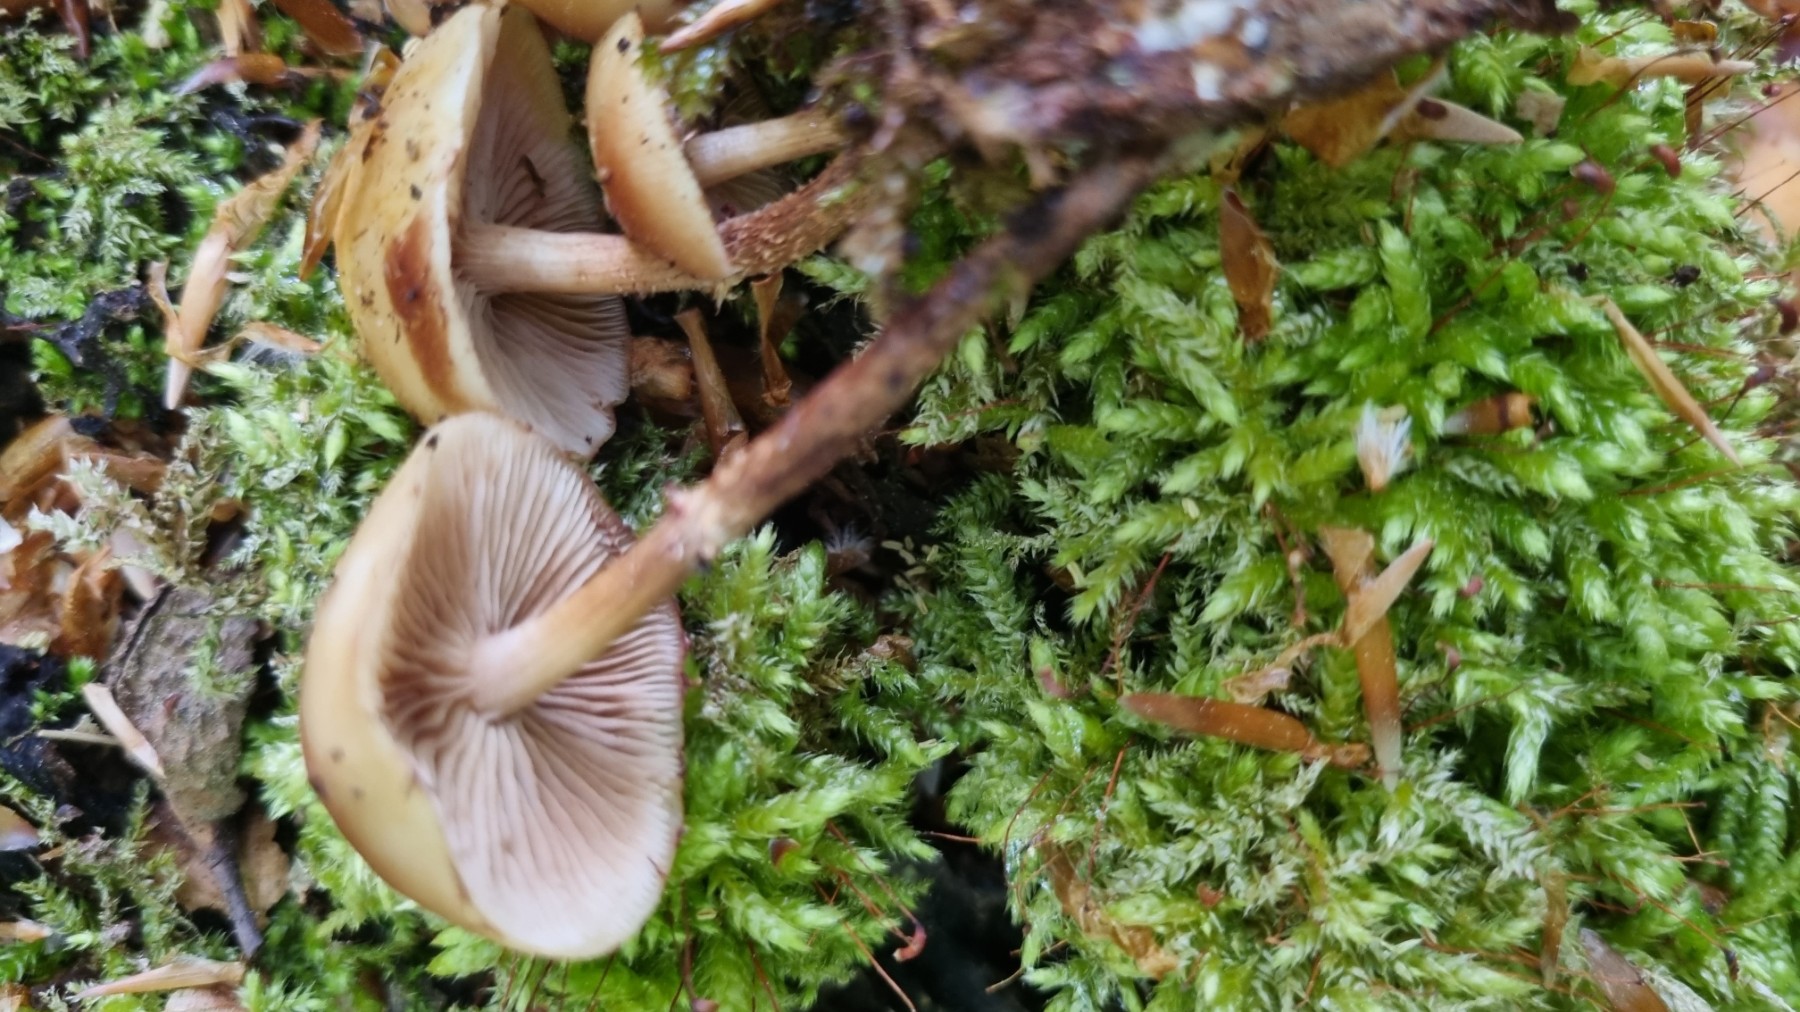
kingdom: Fungi
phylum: Basidiomycota
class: Agaricomycetes
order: Agaricales
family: Strophariaceae
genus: Kuehneromyces
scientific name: Kuehneromyces mutabilis
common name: foranderlig skælhat
